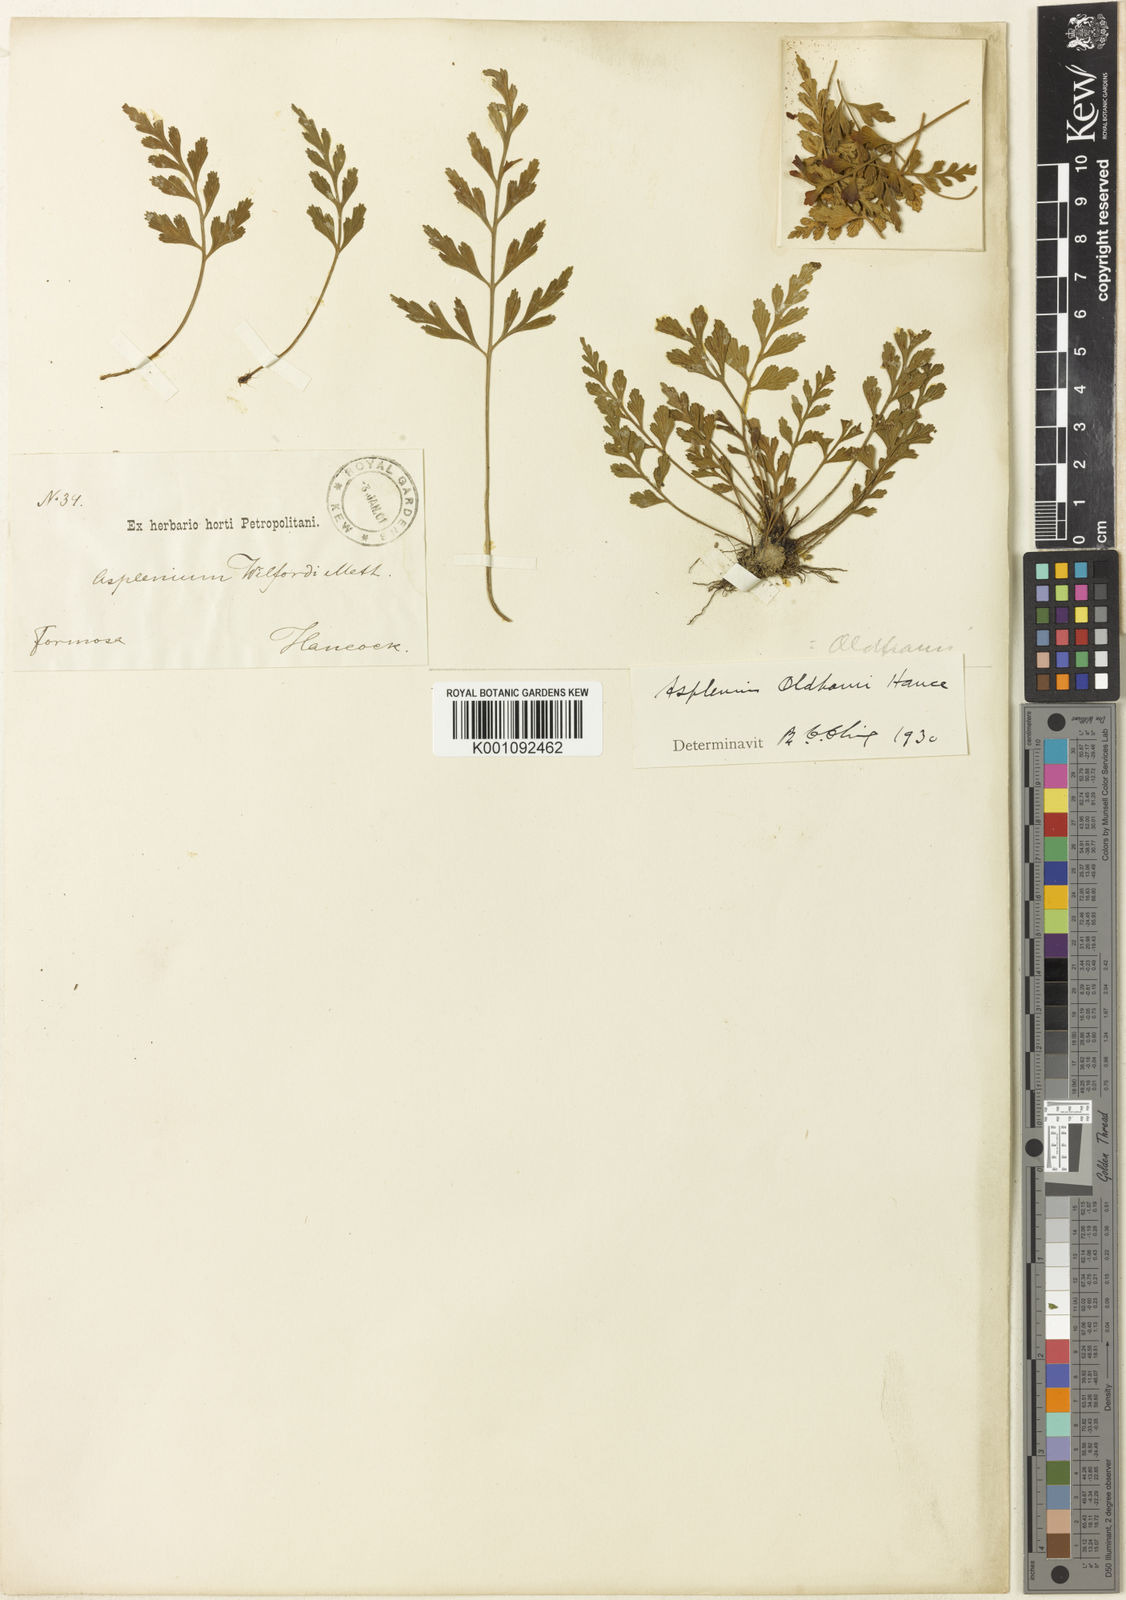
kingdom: Plantae
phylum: Tracheophyta
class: Polypodiopsida
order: Polypodiales
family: Aspleniaceae
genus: Asplenium
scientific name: Asplenium oldhamii
